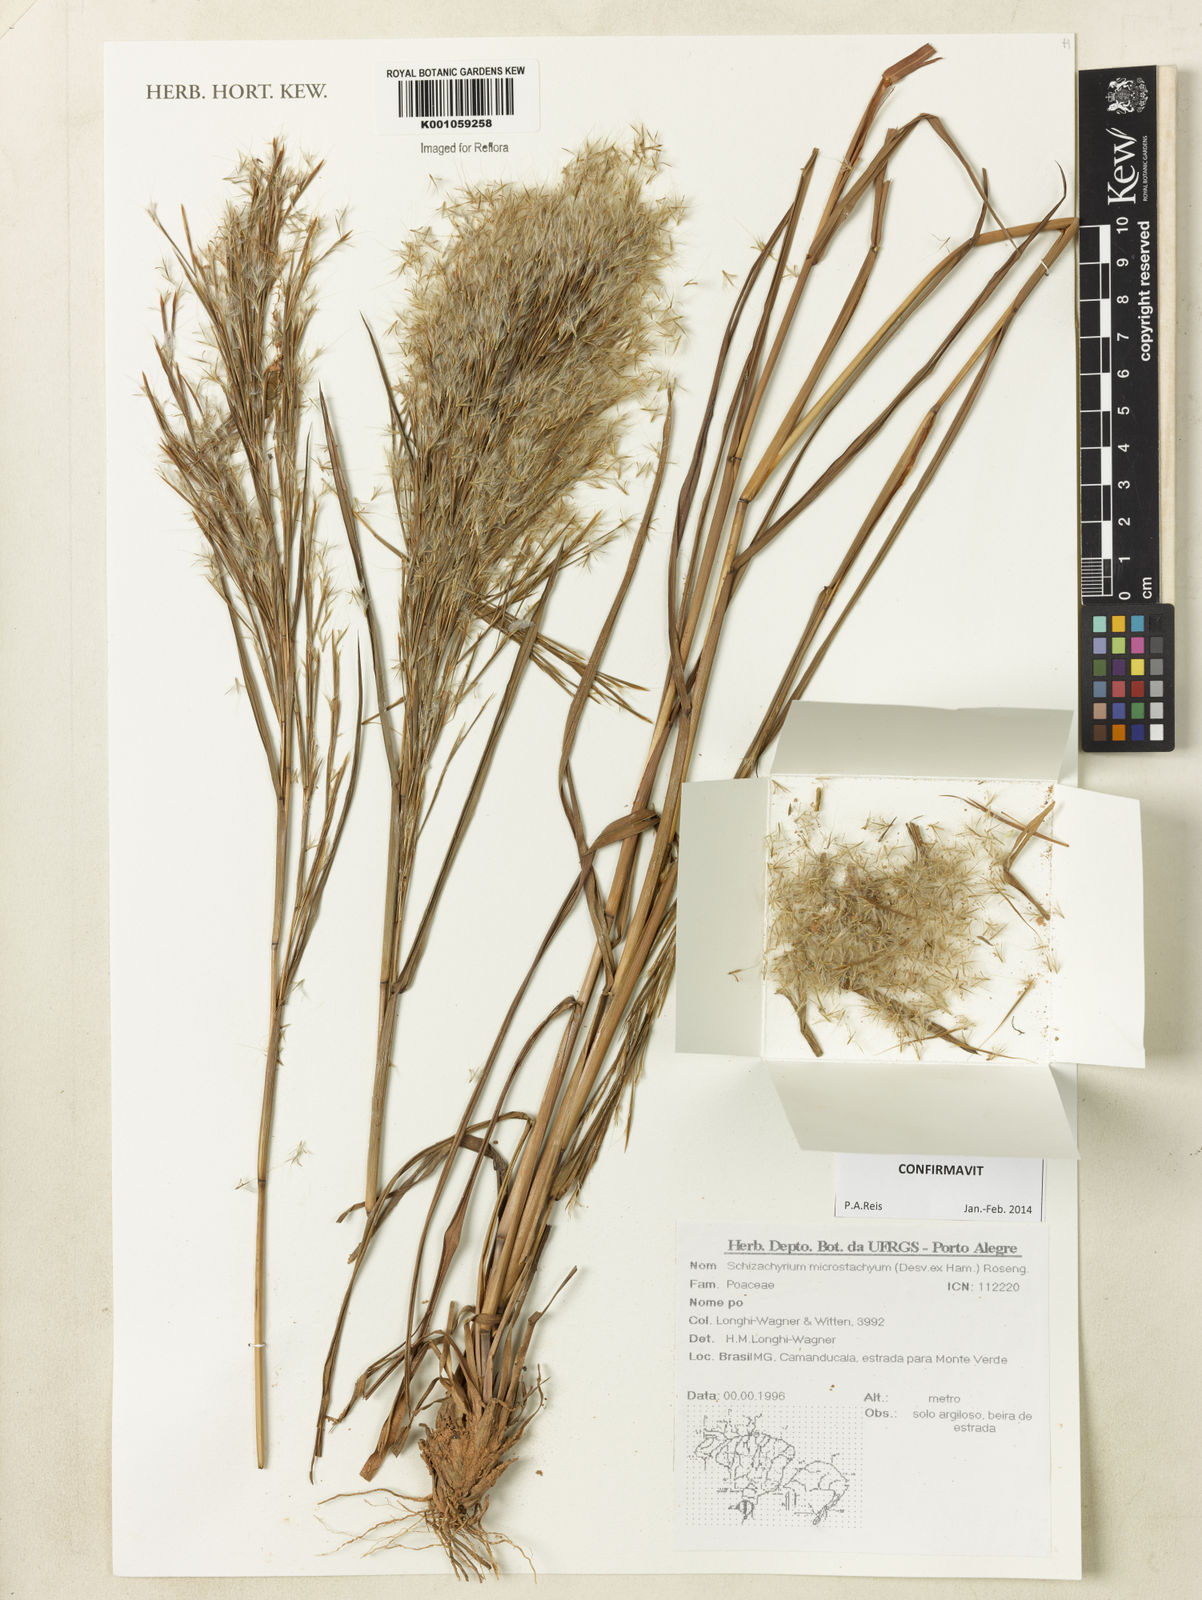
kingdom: Plantae
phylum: Tracheophyta
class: Liliopsida
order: Poales
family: Poaceae
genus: Schizachyrium
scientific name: Schizachyrium
